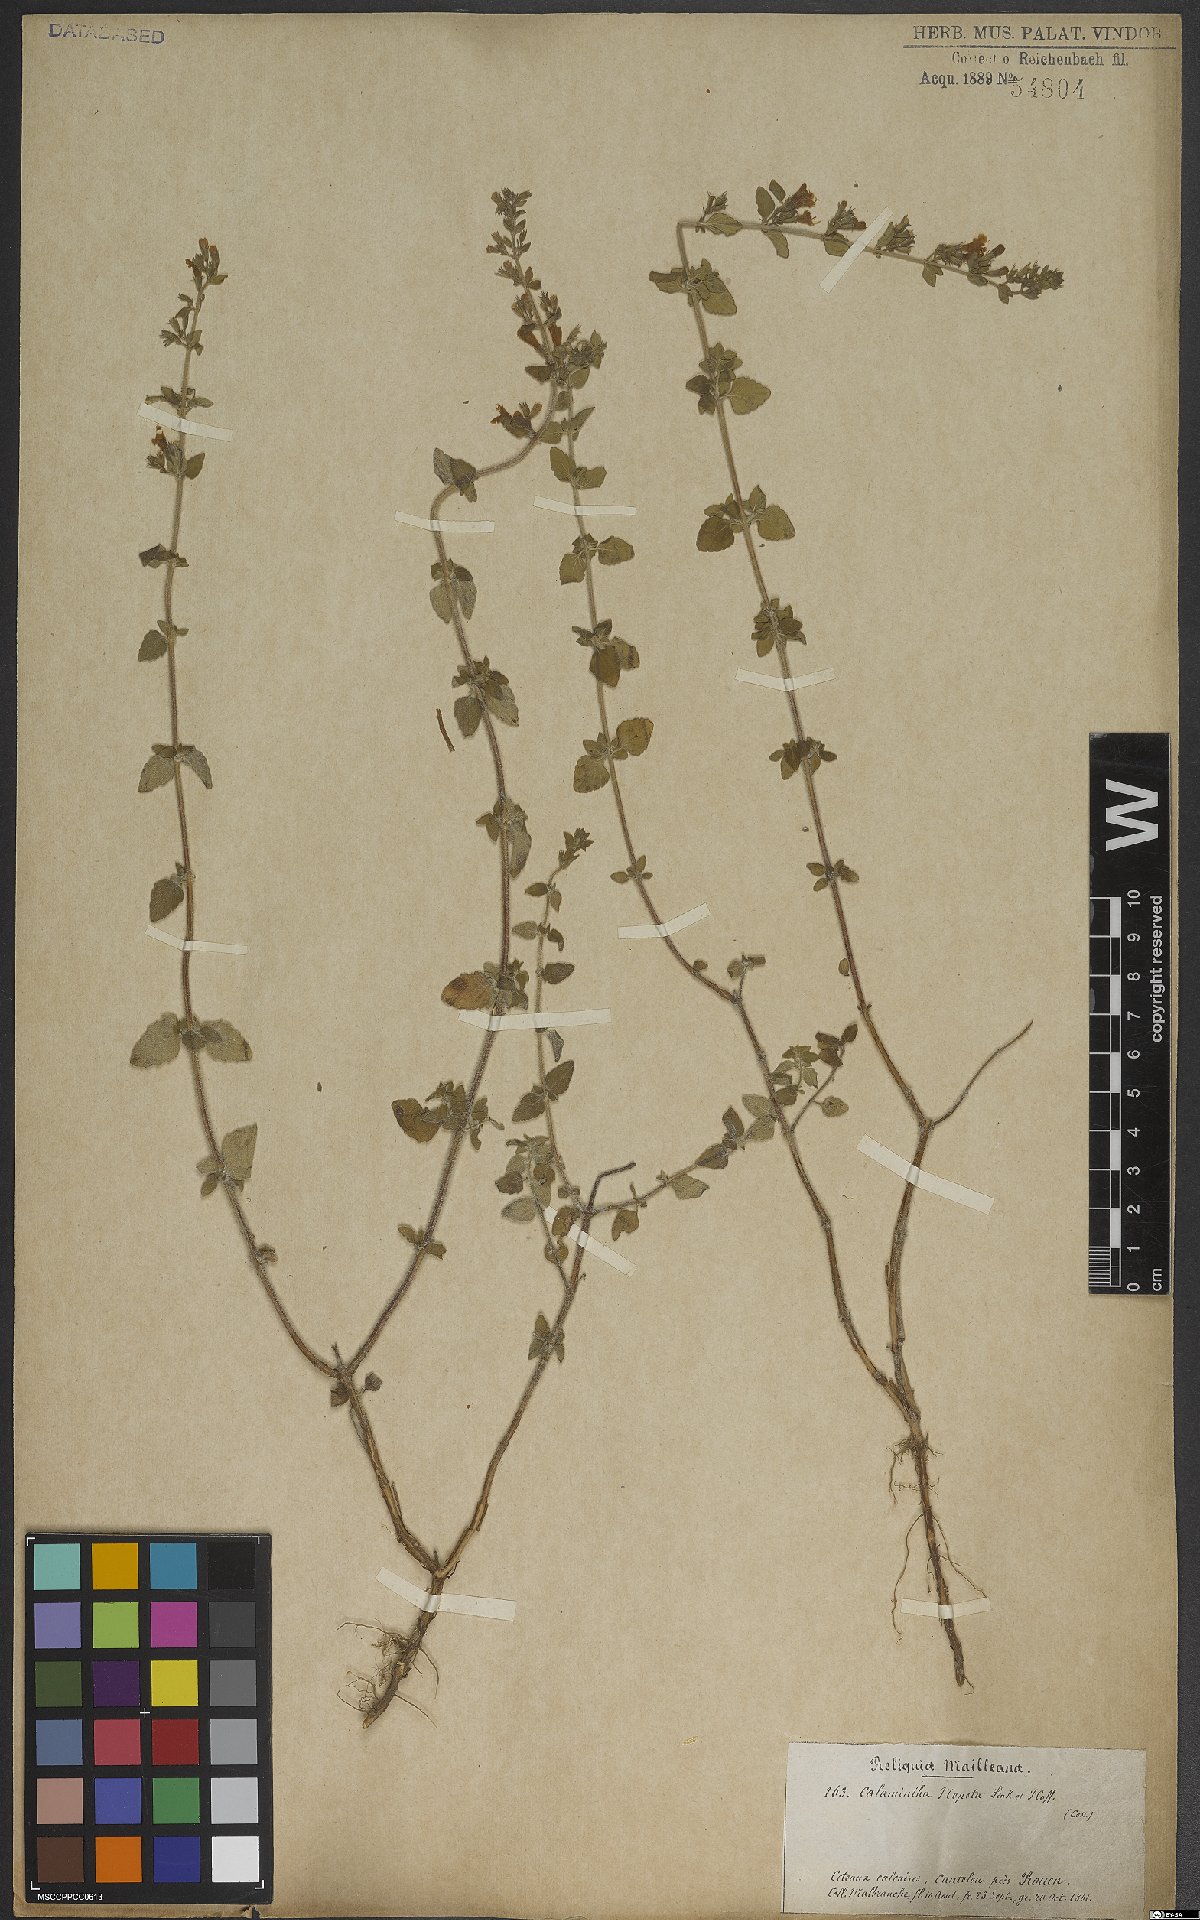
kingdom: Plantae
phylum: Tracheophyta
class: Magnoliopsida
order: Lamiales
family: Lamiaceae
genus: Clinopodium
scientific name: Clinopodium nepeta
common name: Lesser calamint
